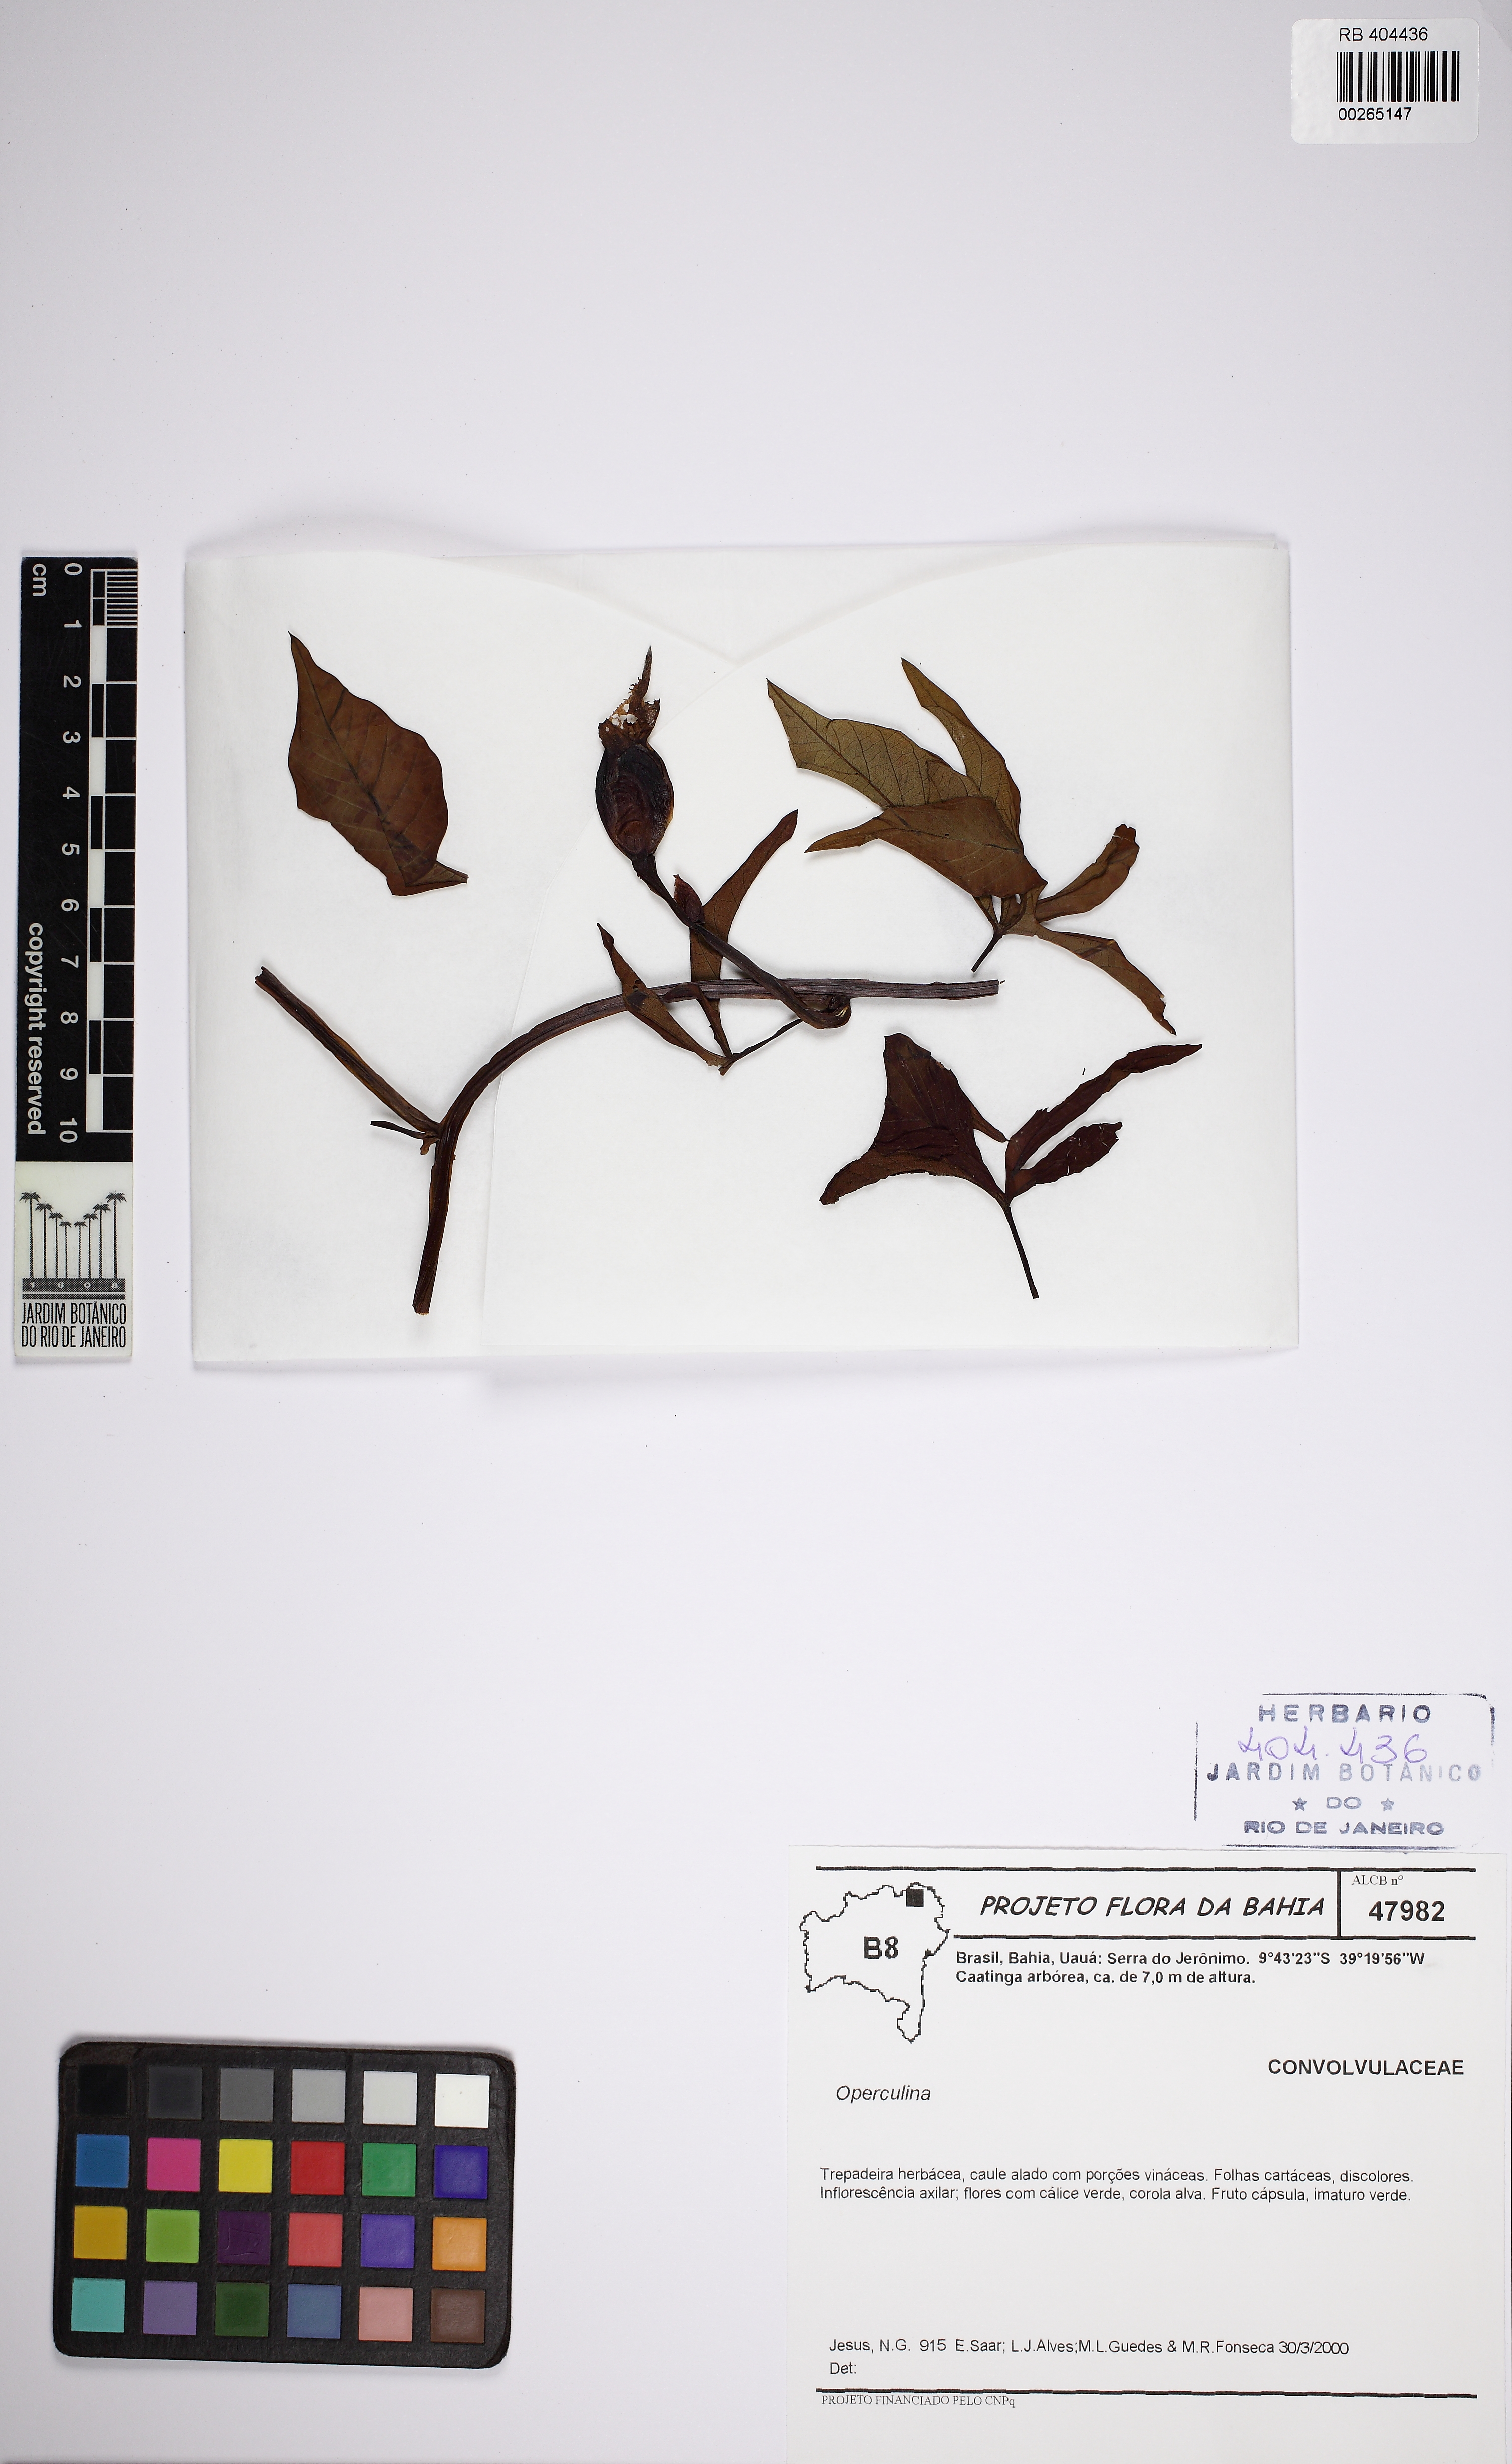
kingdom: Plantae
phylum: Tracheophyta
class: Magnoliopsida
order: Solanales
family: Convolvulaceae
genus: Operculina
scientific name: Operculina macrocarpa
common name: Brazilian jalap
